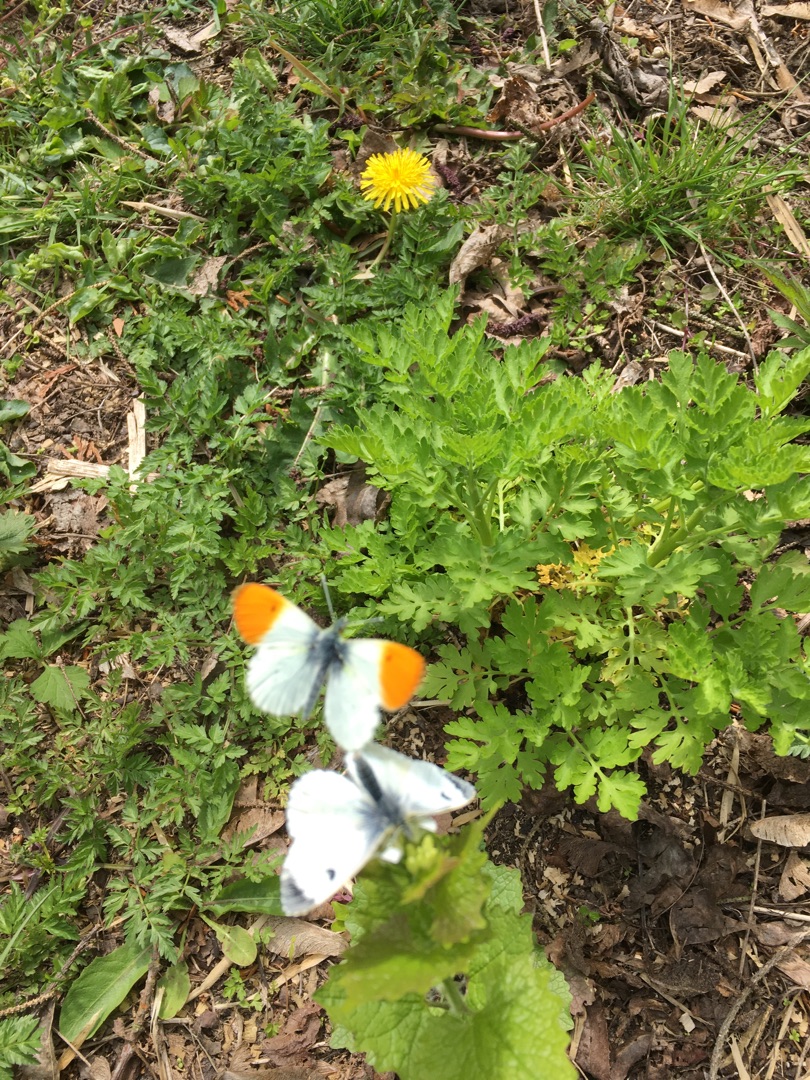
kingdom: Animalia
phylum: Arthropoda
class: Insecta
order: Lepidoptera
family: Pieridae
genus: Anthocharis
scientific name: Anthocharis cardamines
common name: Aurora
